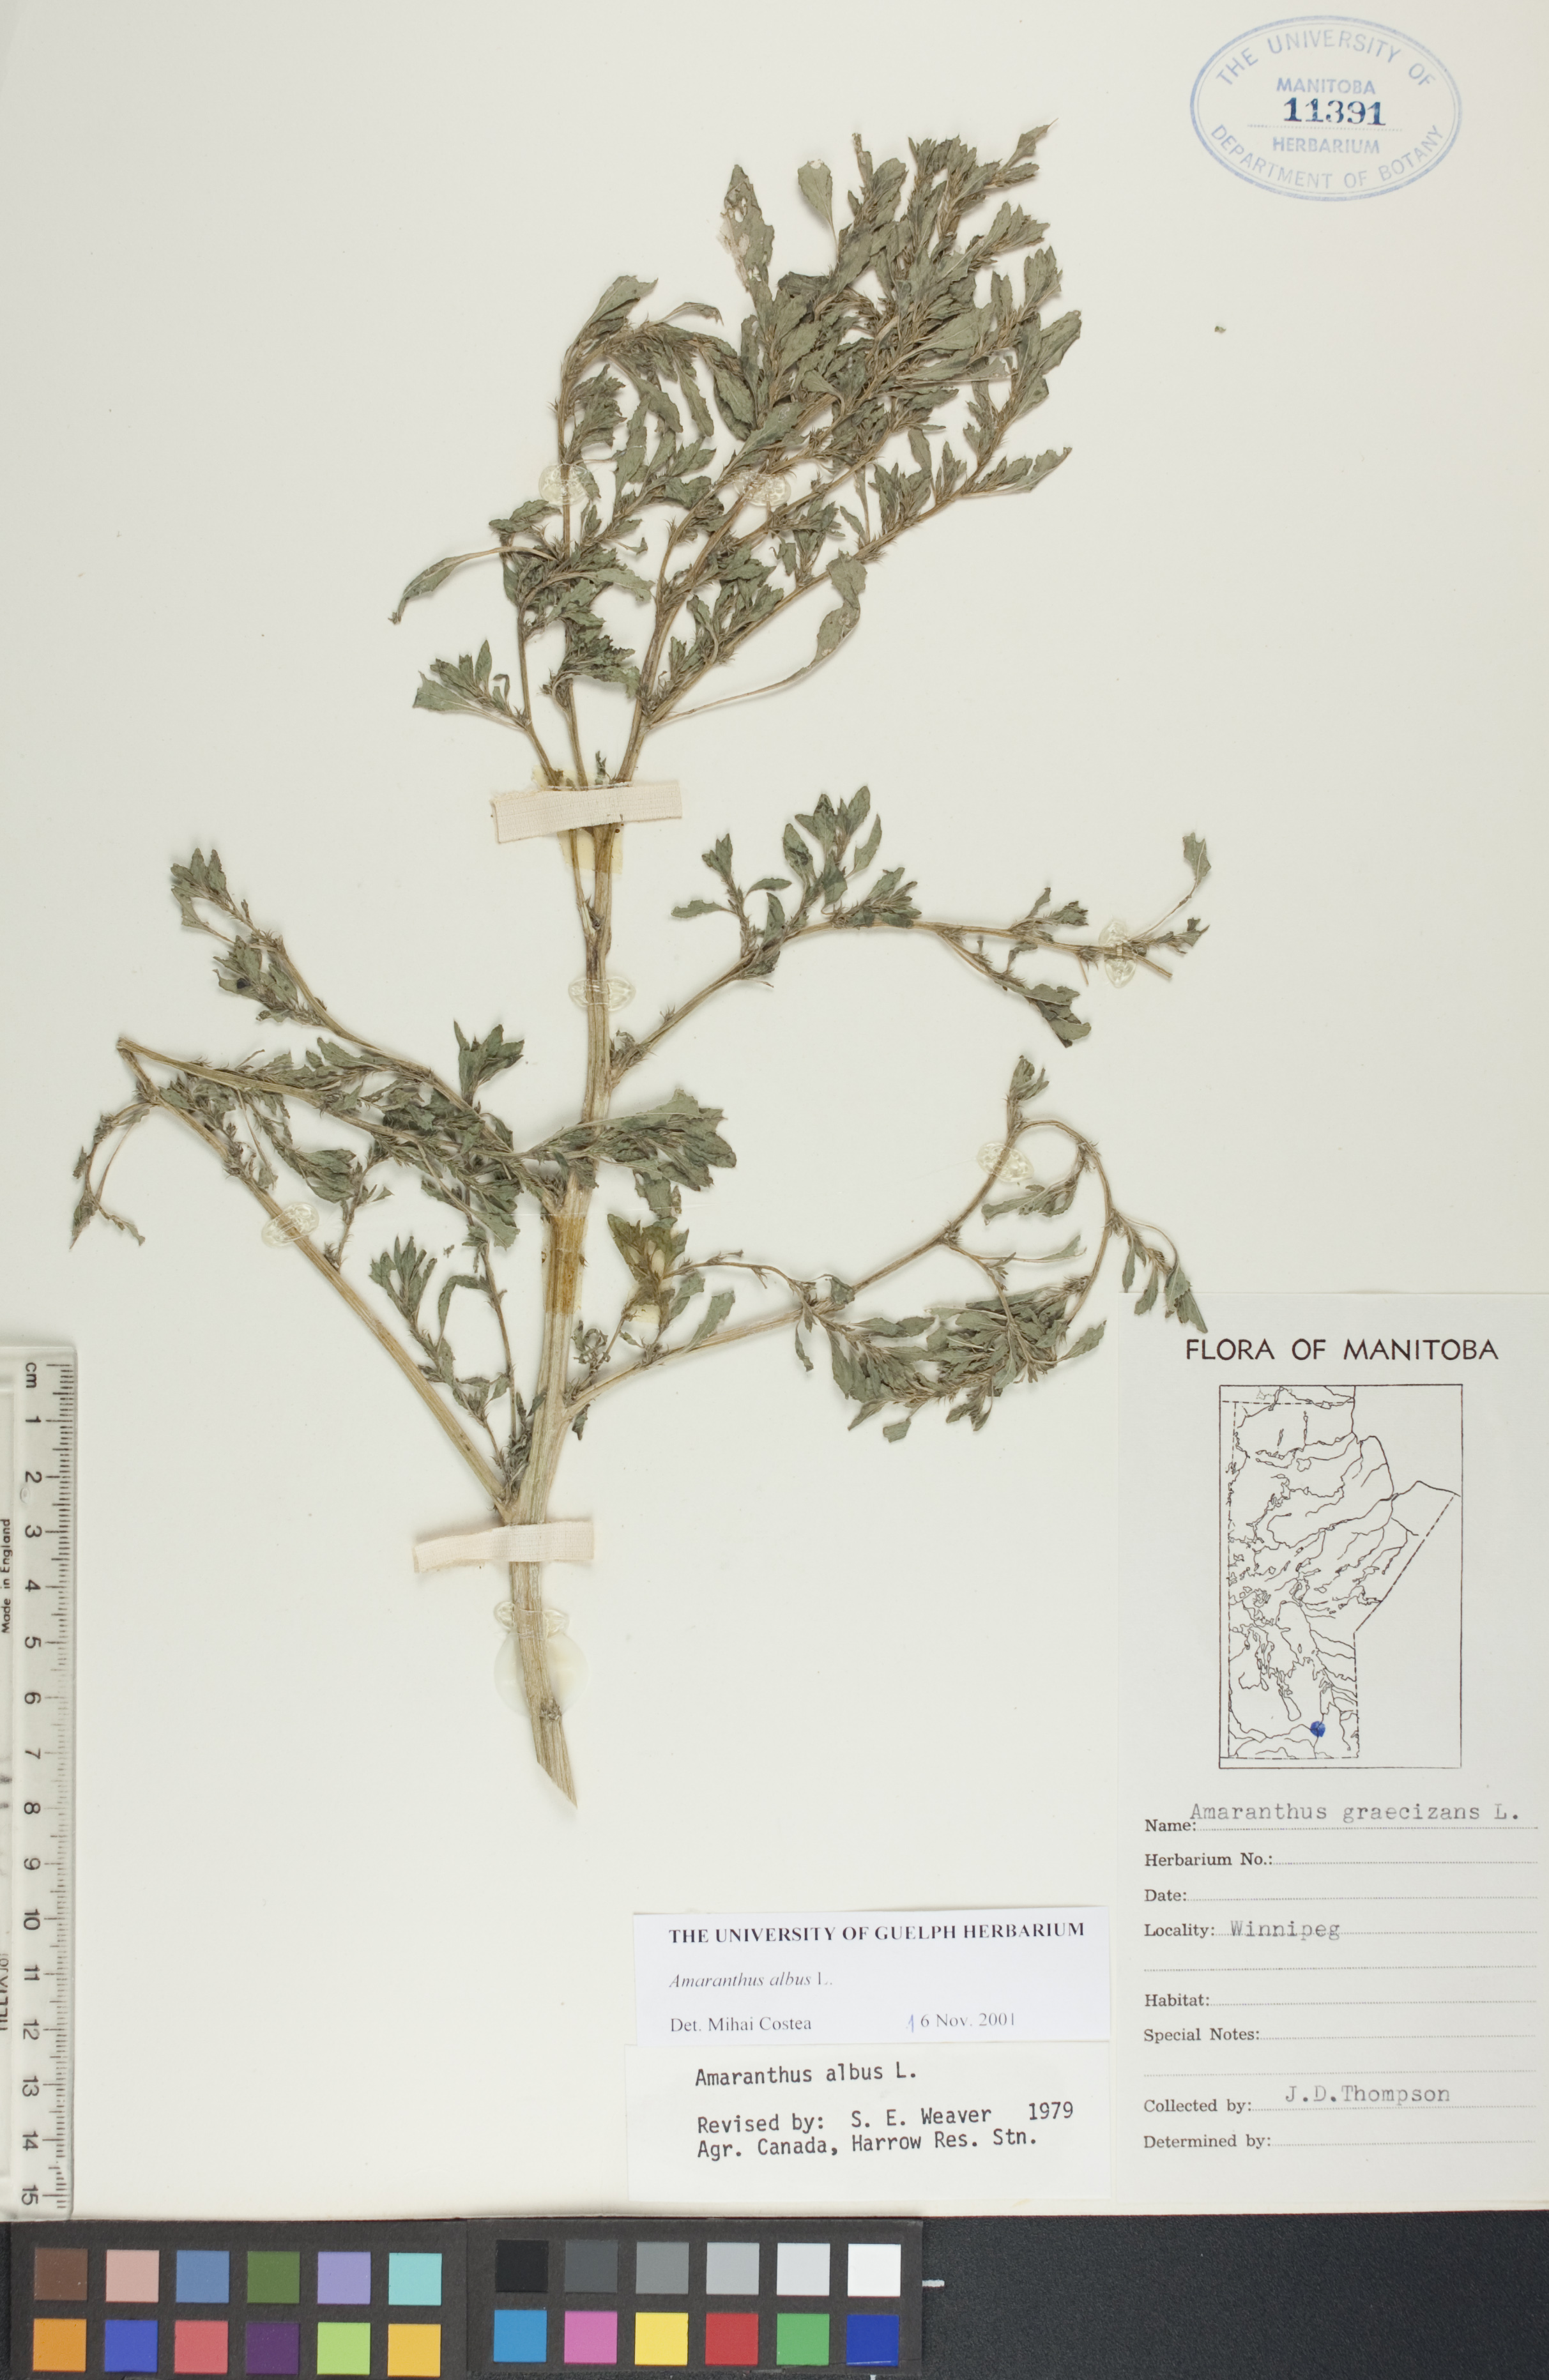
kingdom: Plantae
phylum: Tracheophyta
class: Magnoliopsida
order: Caryophyllales
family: Amaranthaceae
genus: Amaranthus
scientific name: Amaranthus albus
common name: White pigweed
